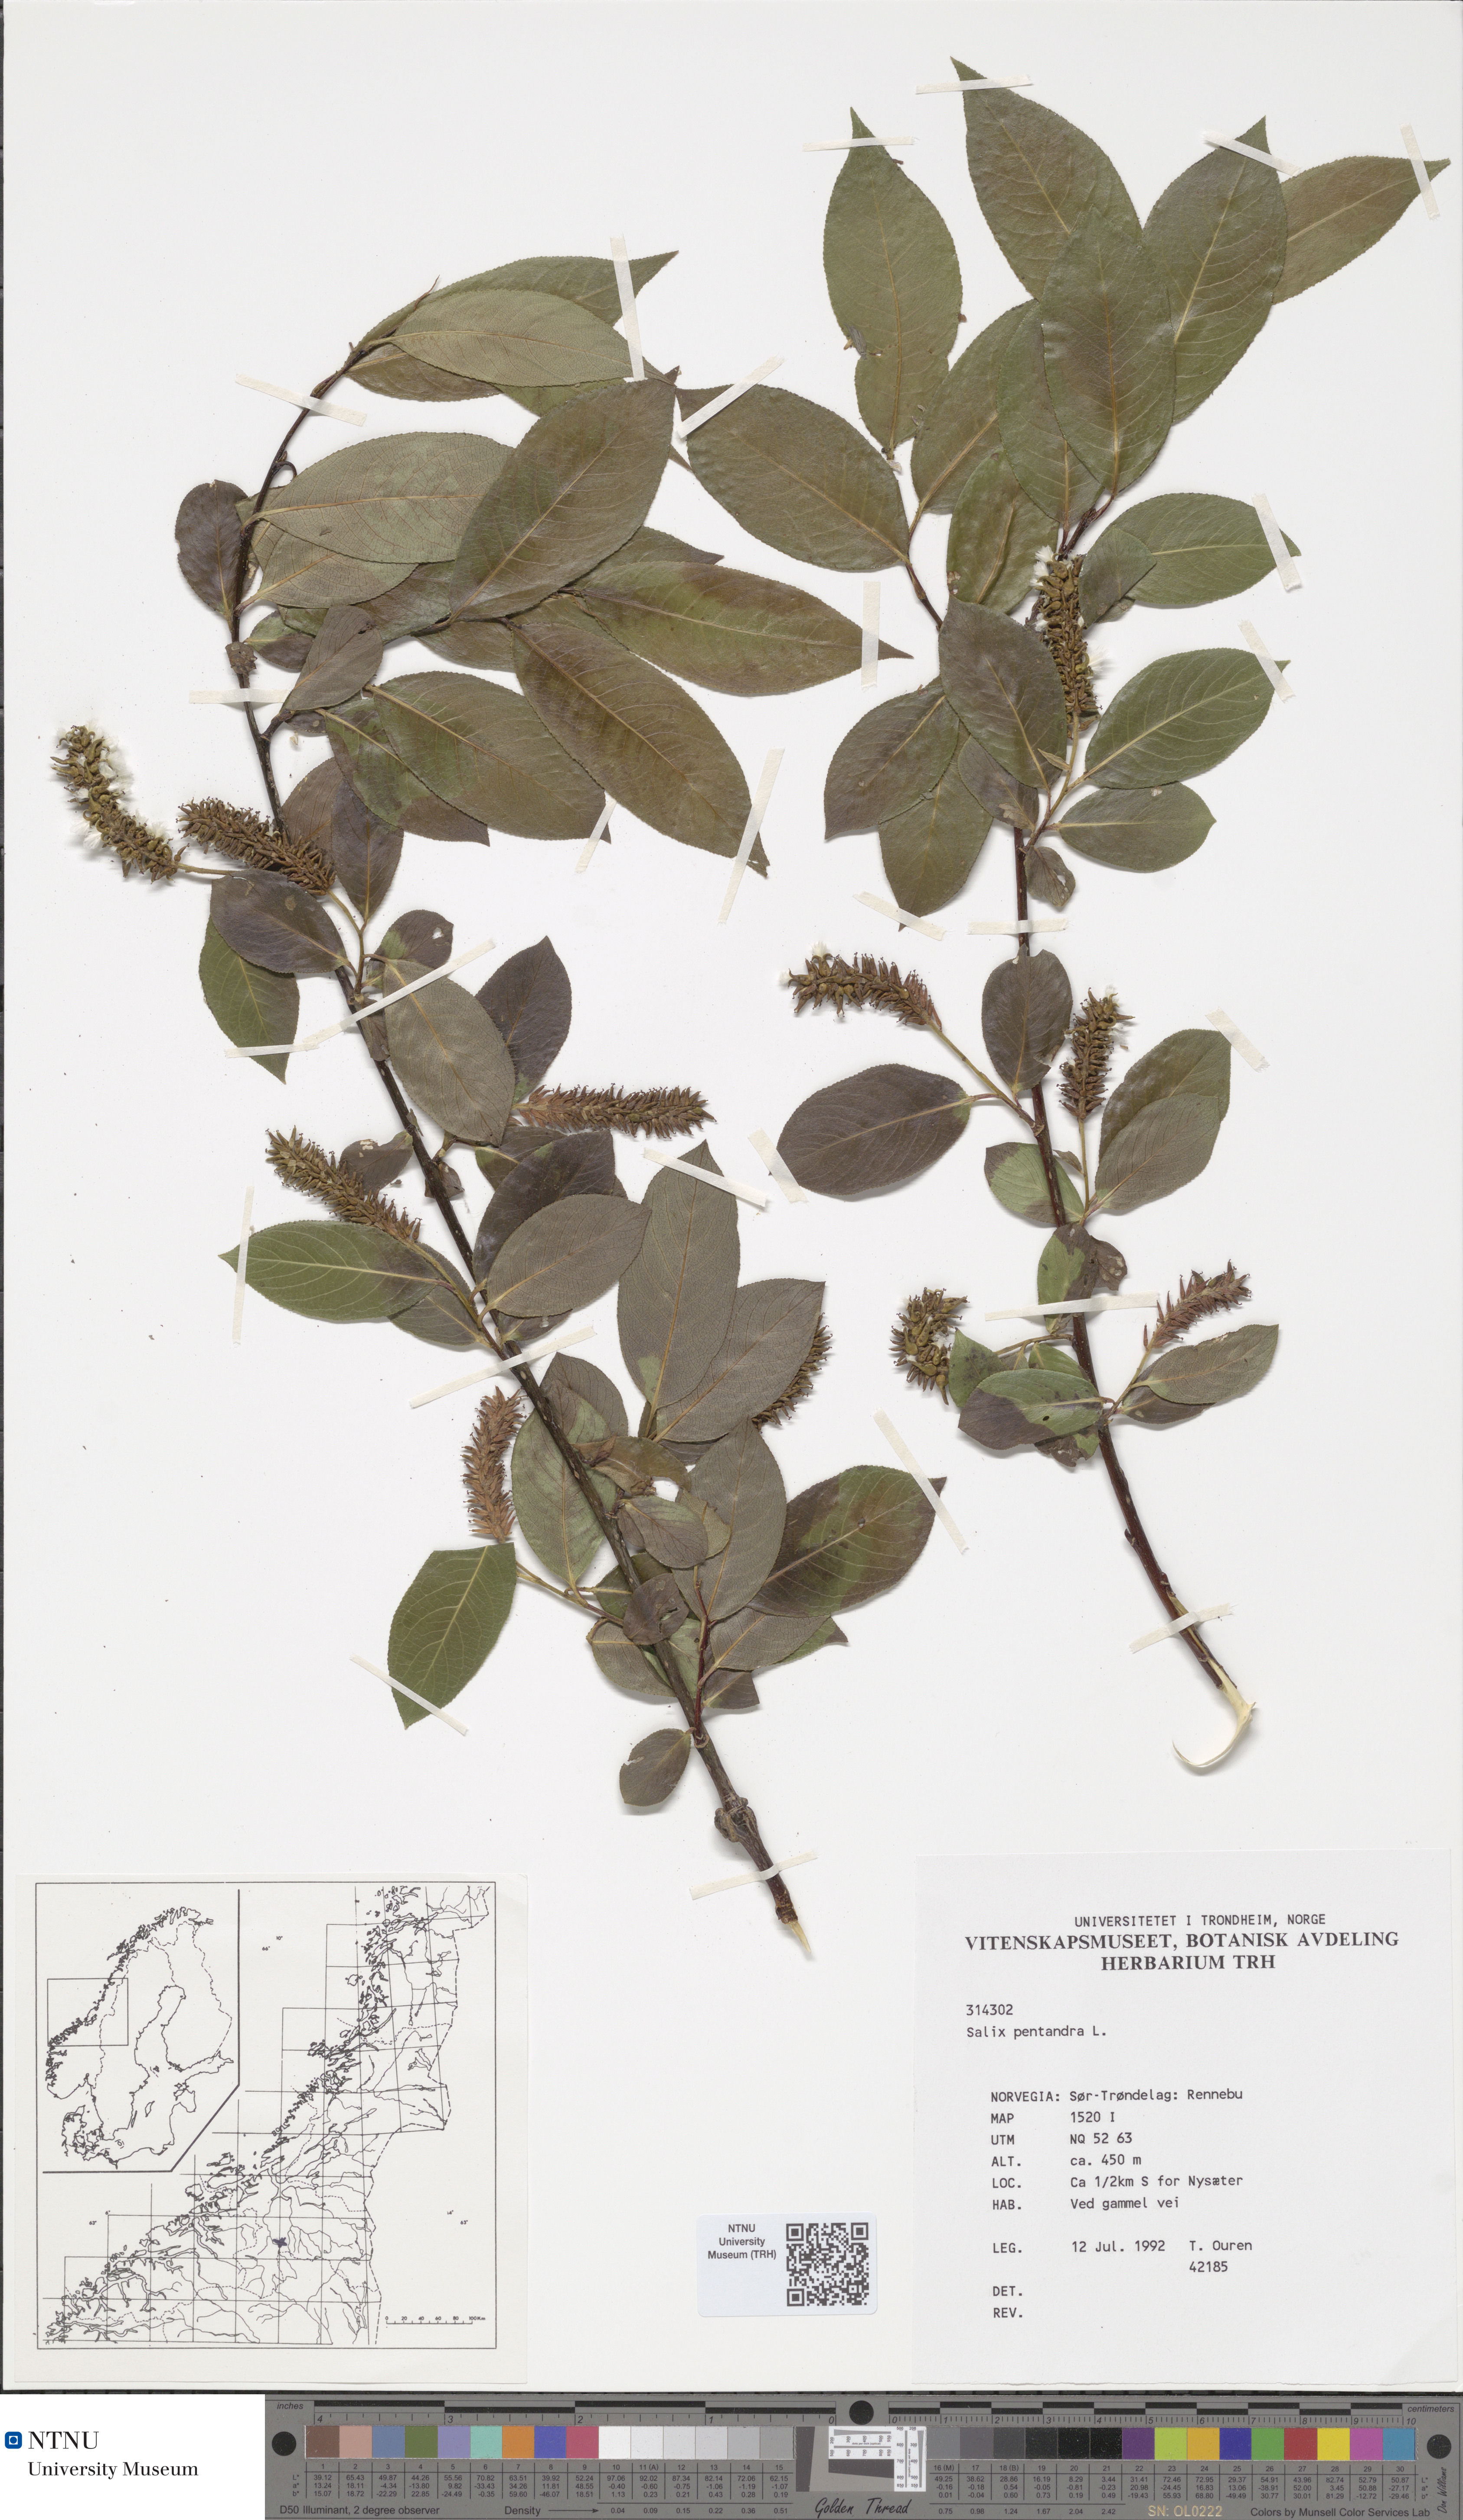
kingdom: Plantae
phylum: Tracheophyta
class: Magnoliopsida
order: Malpighiales
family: Salicaceae
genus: Salix
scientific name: Salix pentandra
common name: Bay willow
